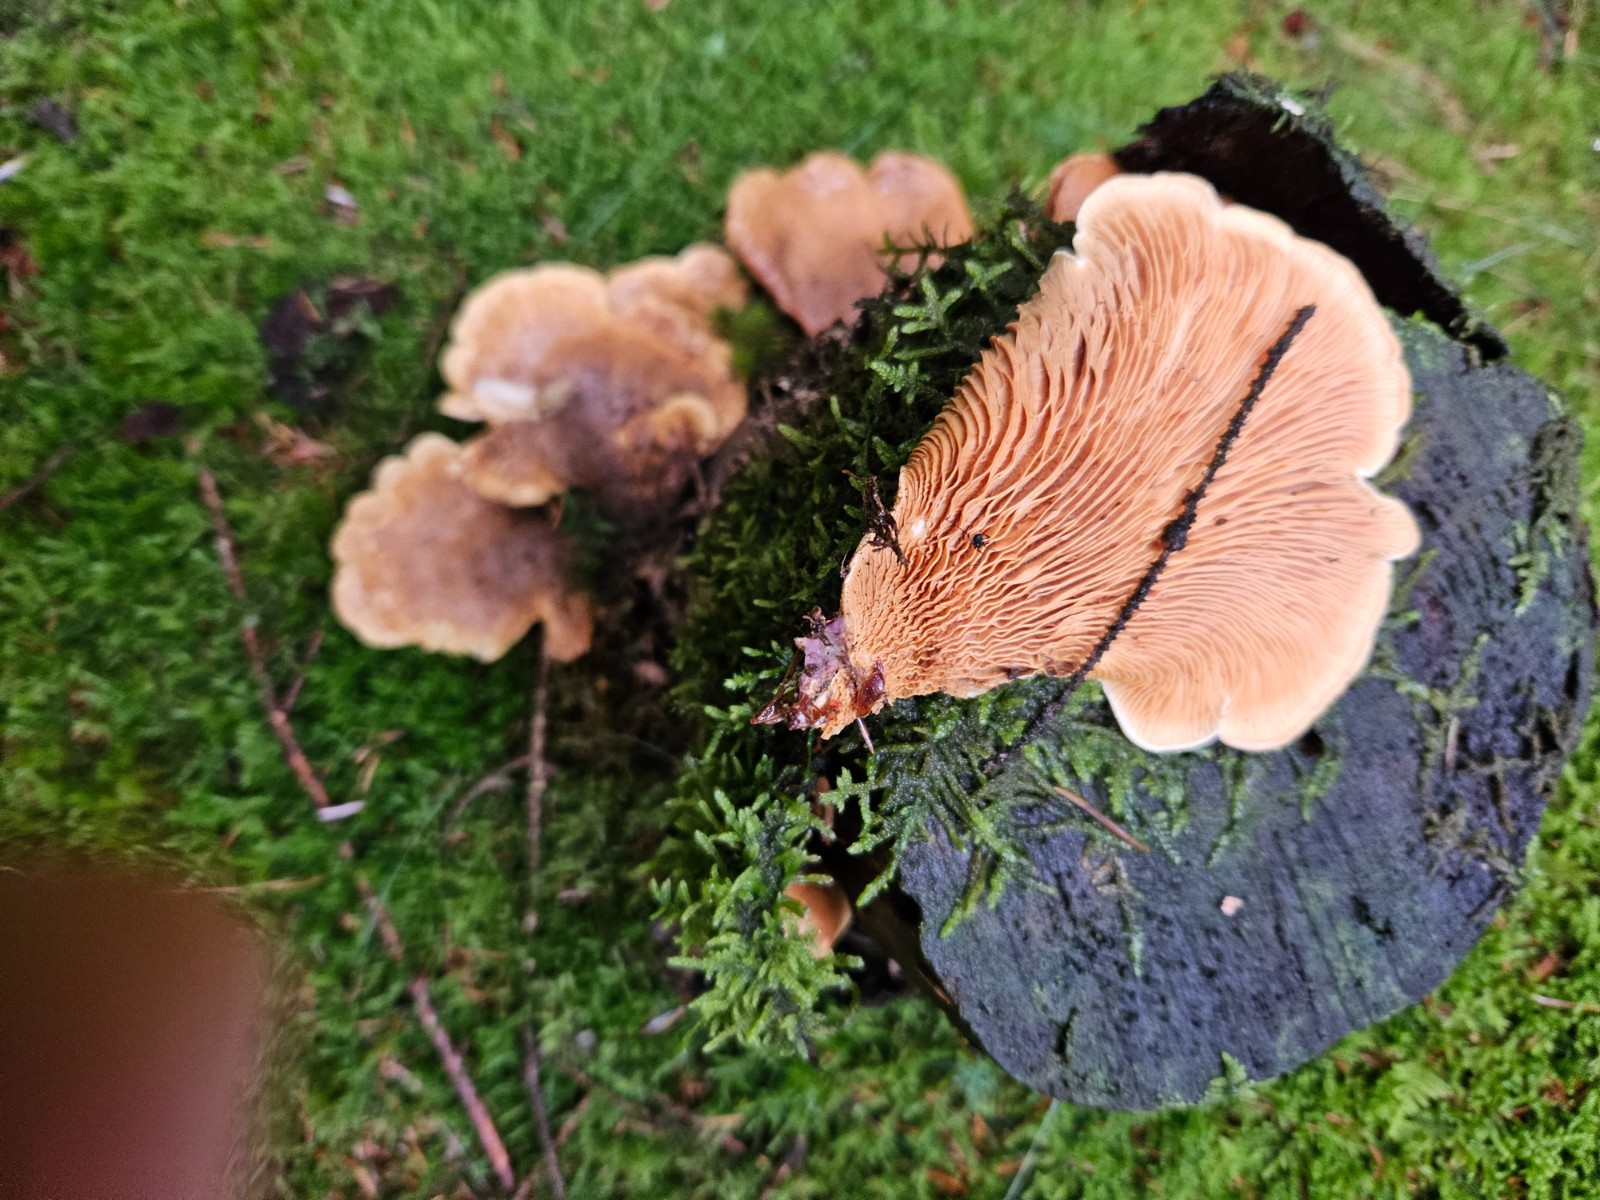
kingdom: Fungi
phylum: Basidiomycota
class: Agaricomycetes
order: Boletales
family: Tapinellaceae
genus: Tapinella
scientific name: Tapinella panuoides
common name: tømmer-viftesvamp
